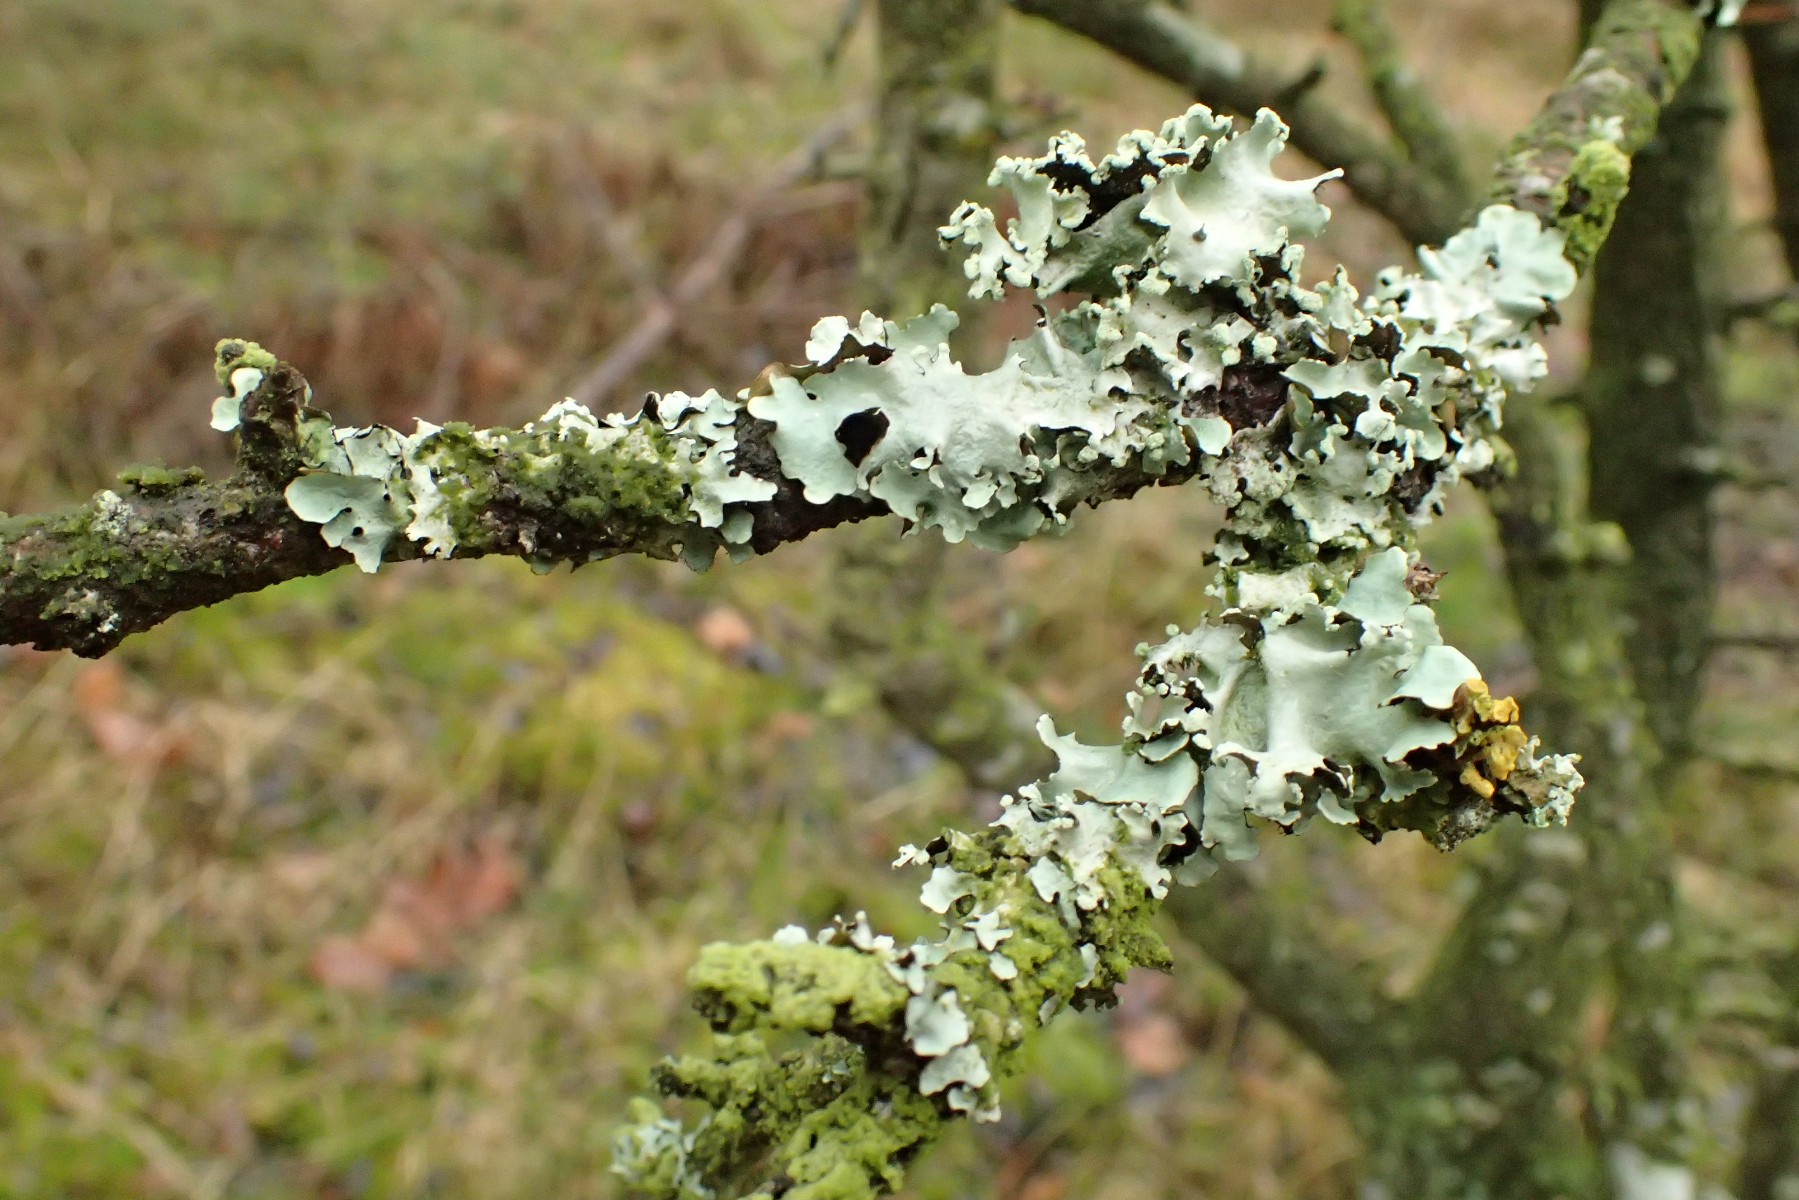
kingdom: Fungi
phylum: Ascomycota
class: Lecanoromycetes
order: Lecanorales
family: Parmeliaceae
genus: Parmotrema
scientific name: Parmotrema perlatum
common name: trådet skållav
